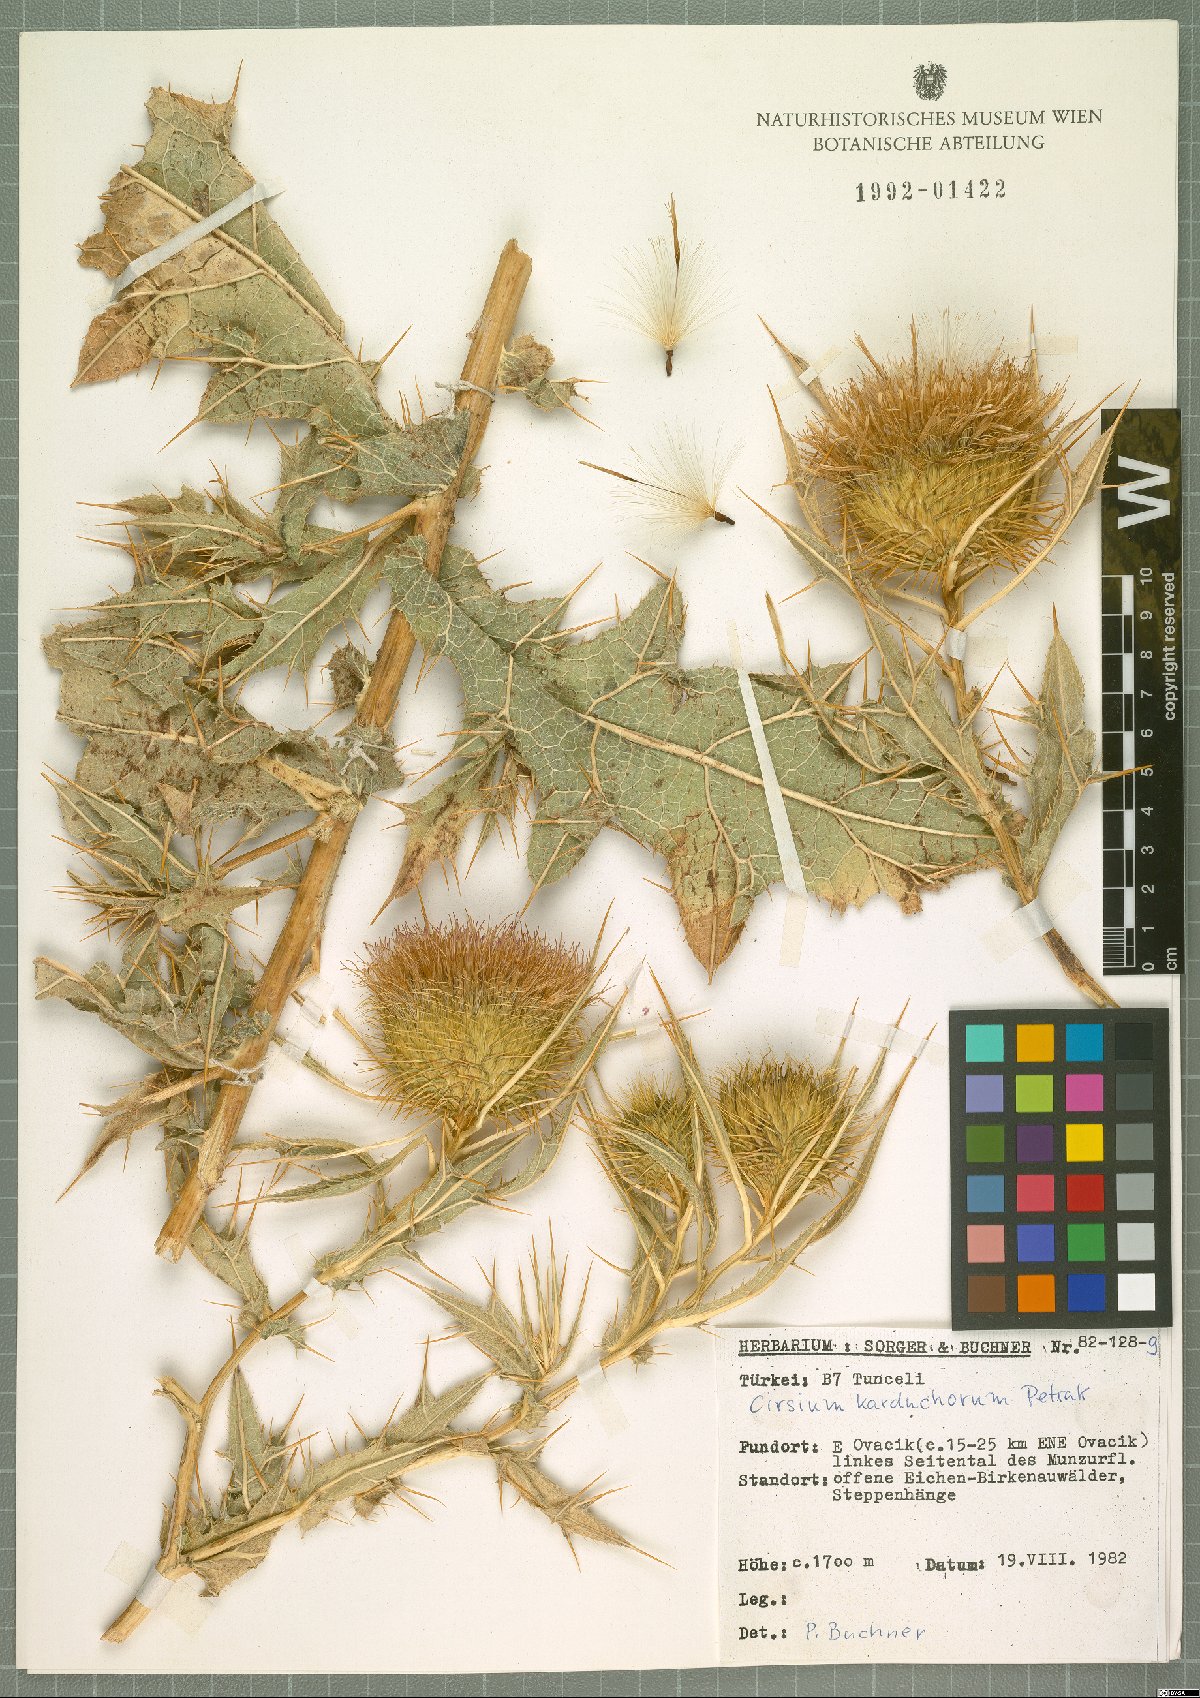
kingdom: Plantae
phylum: Tracheophyta
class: Magnoliopsida
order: Asterales
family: Asteraceae
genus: Lophiolepis
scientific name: Lophiolepis karduchorum
